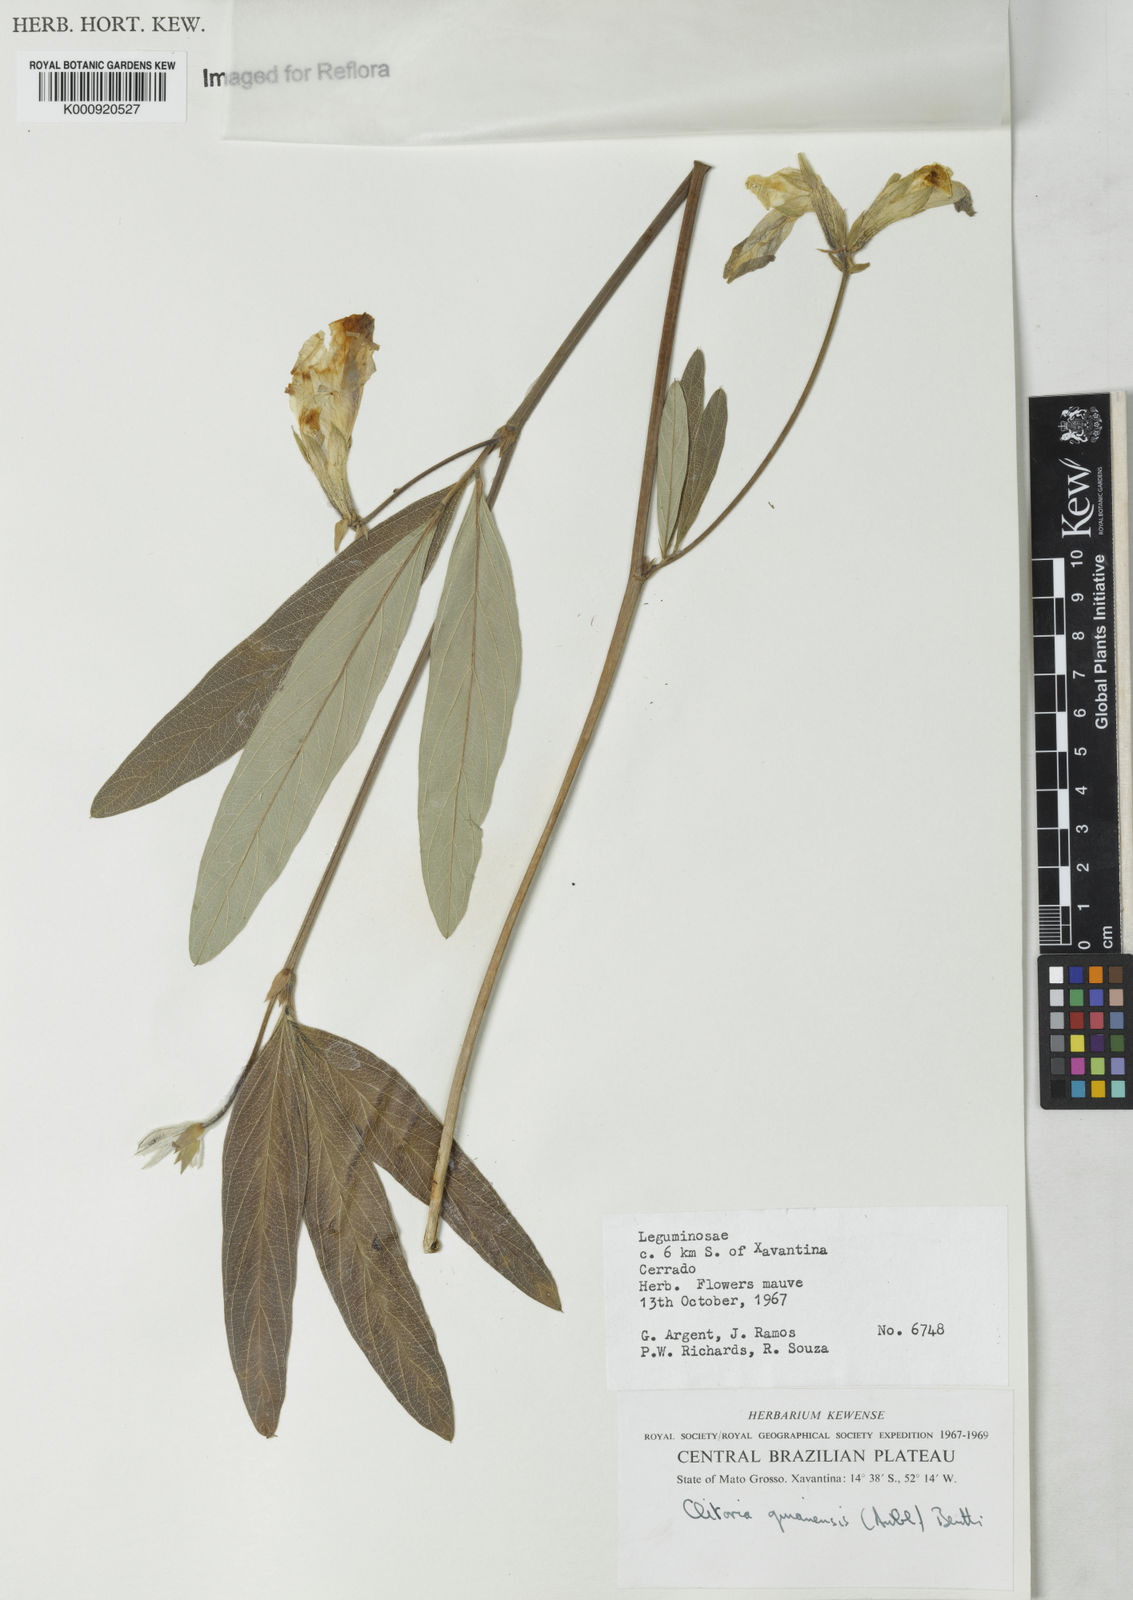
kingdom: Plantae
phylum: Tracheophyta
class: Magnoliopsida
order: Fabales
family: Fabaceae
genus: Clitoria
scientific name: Clitoria guianensis
